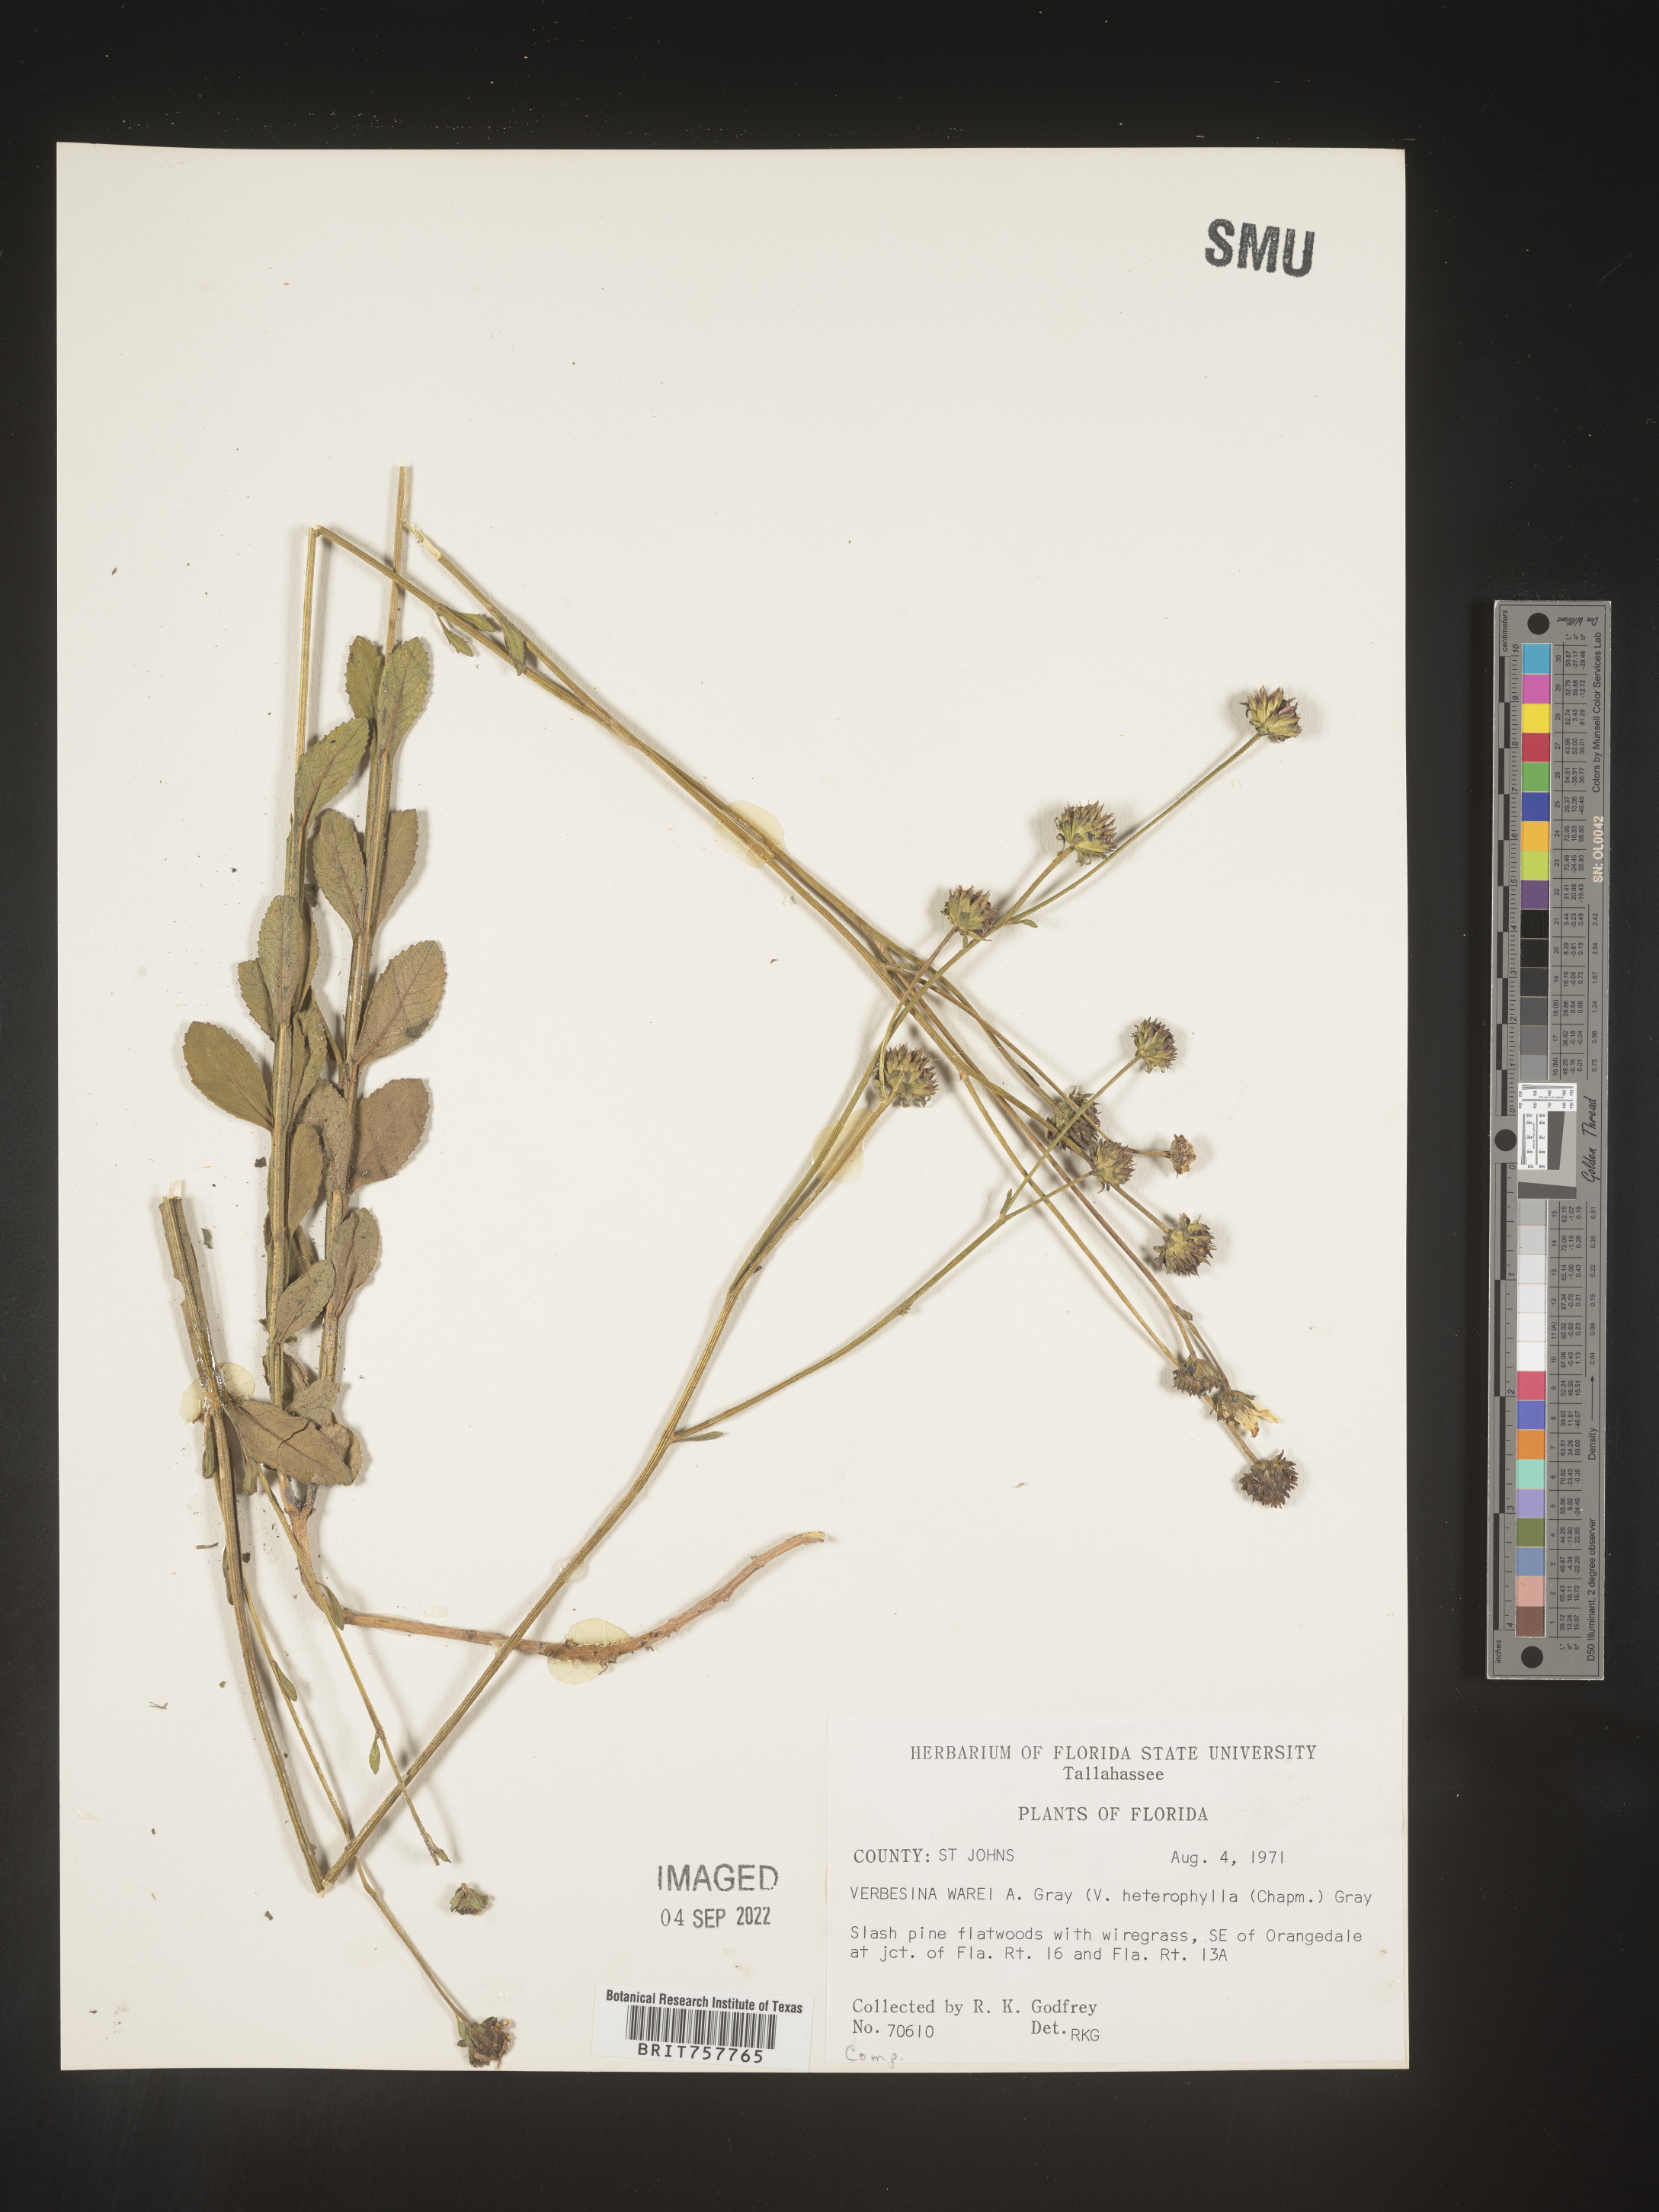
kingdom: Plantae
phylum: Tracheophyta
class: Magnoliopsida
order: Asterales
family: Asteraceae
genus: Verbesina
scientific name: Verbesina
